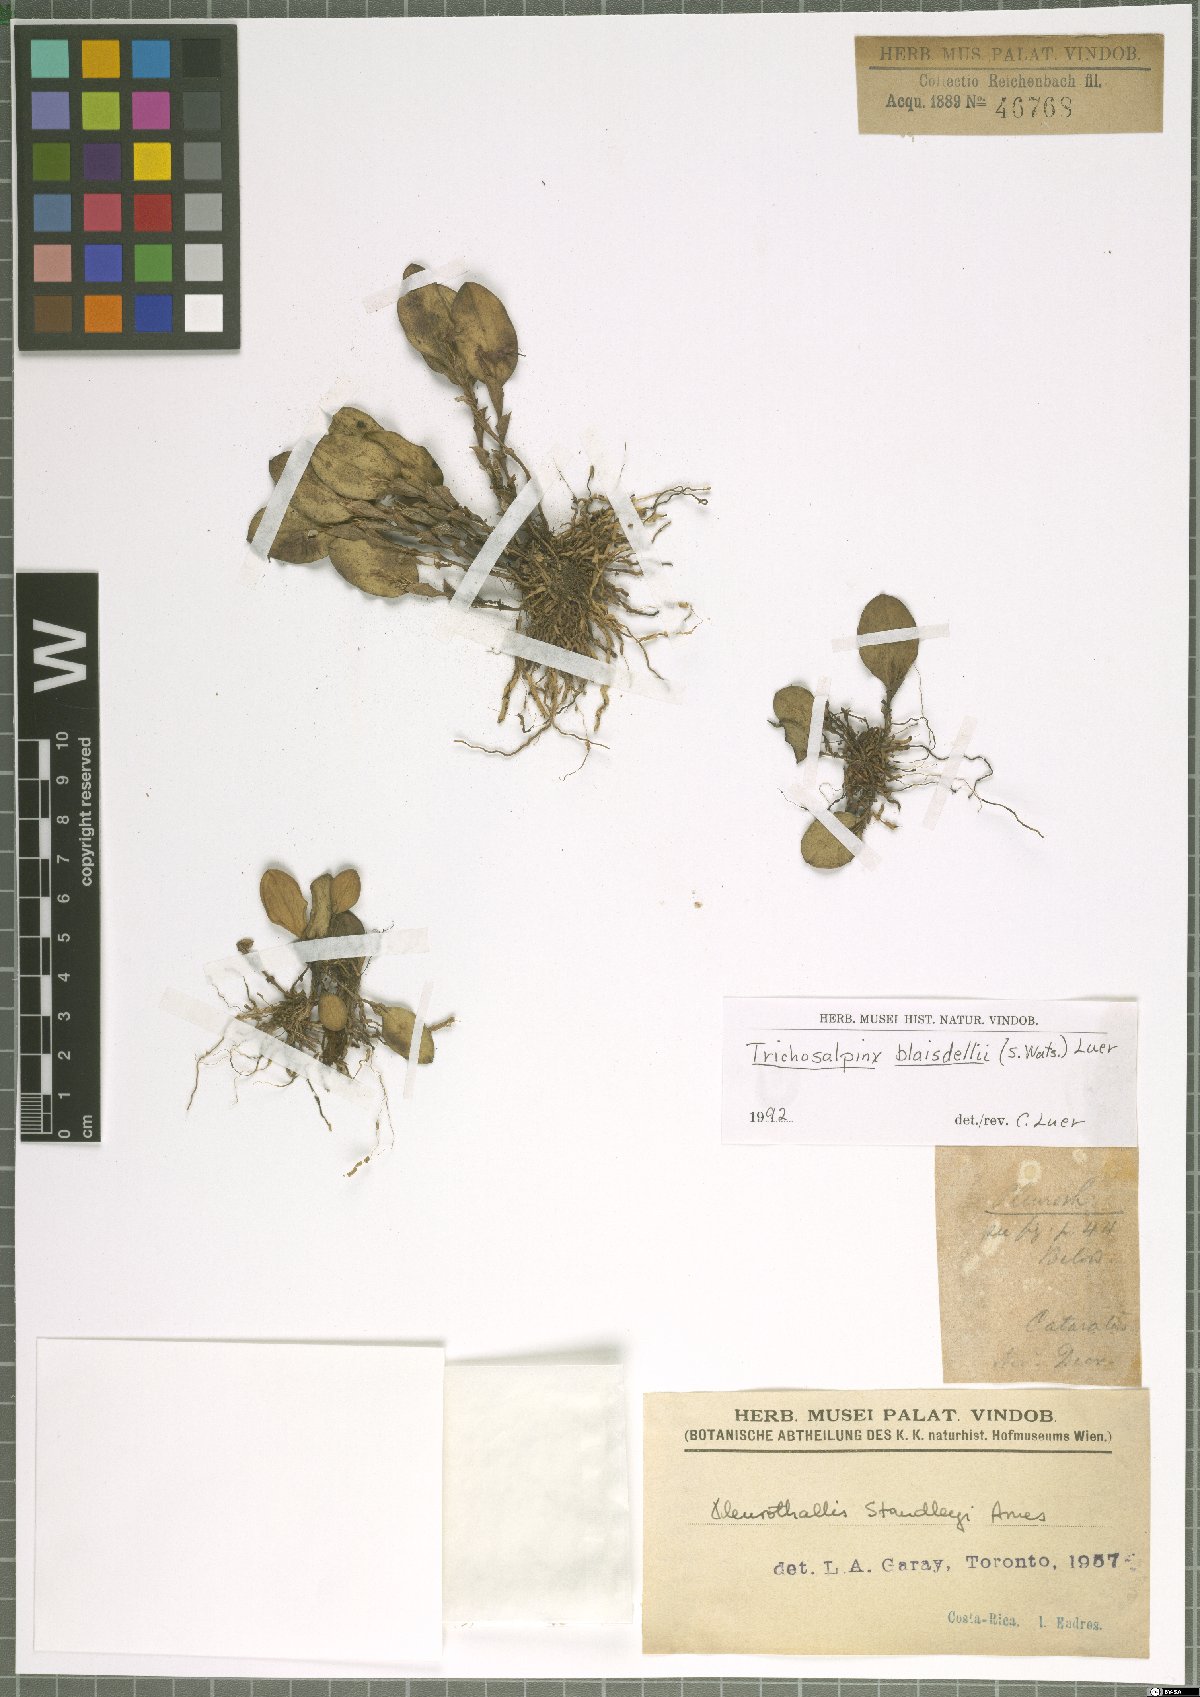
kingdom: Plantae
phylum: Tracheophyta
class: Liliopsida
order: Asparagales
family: Orchidaceae
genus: Trichosalpinx
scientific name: Trichosalpinx blaisdellii
